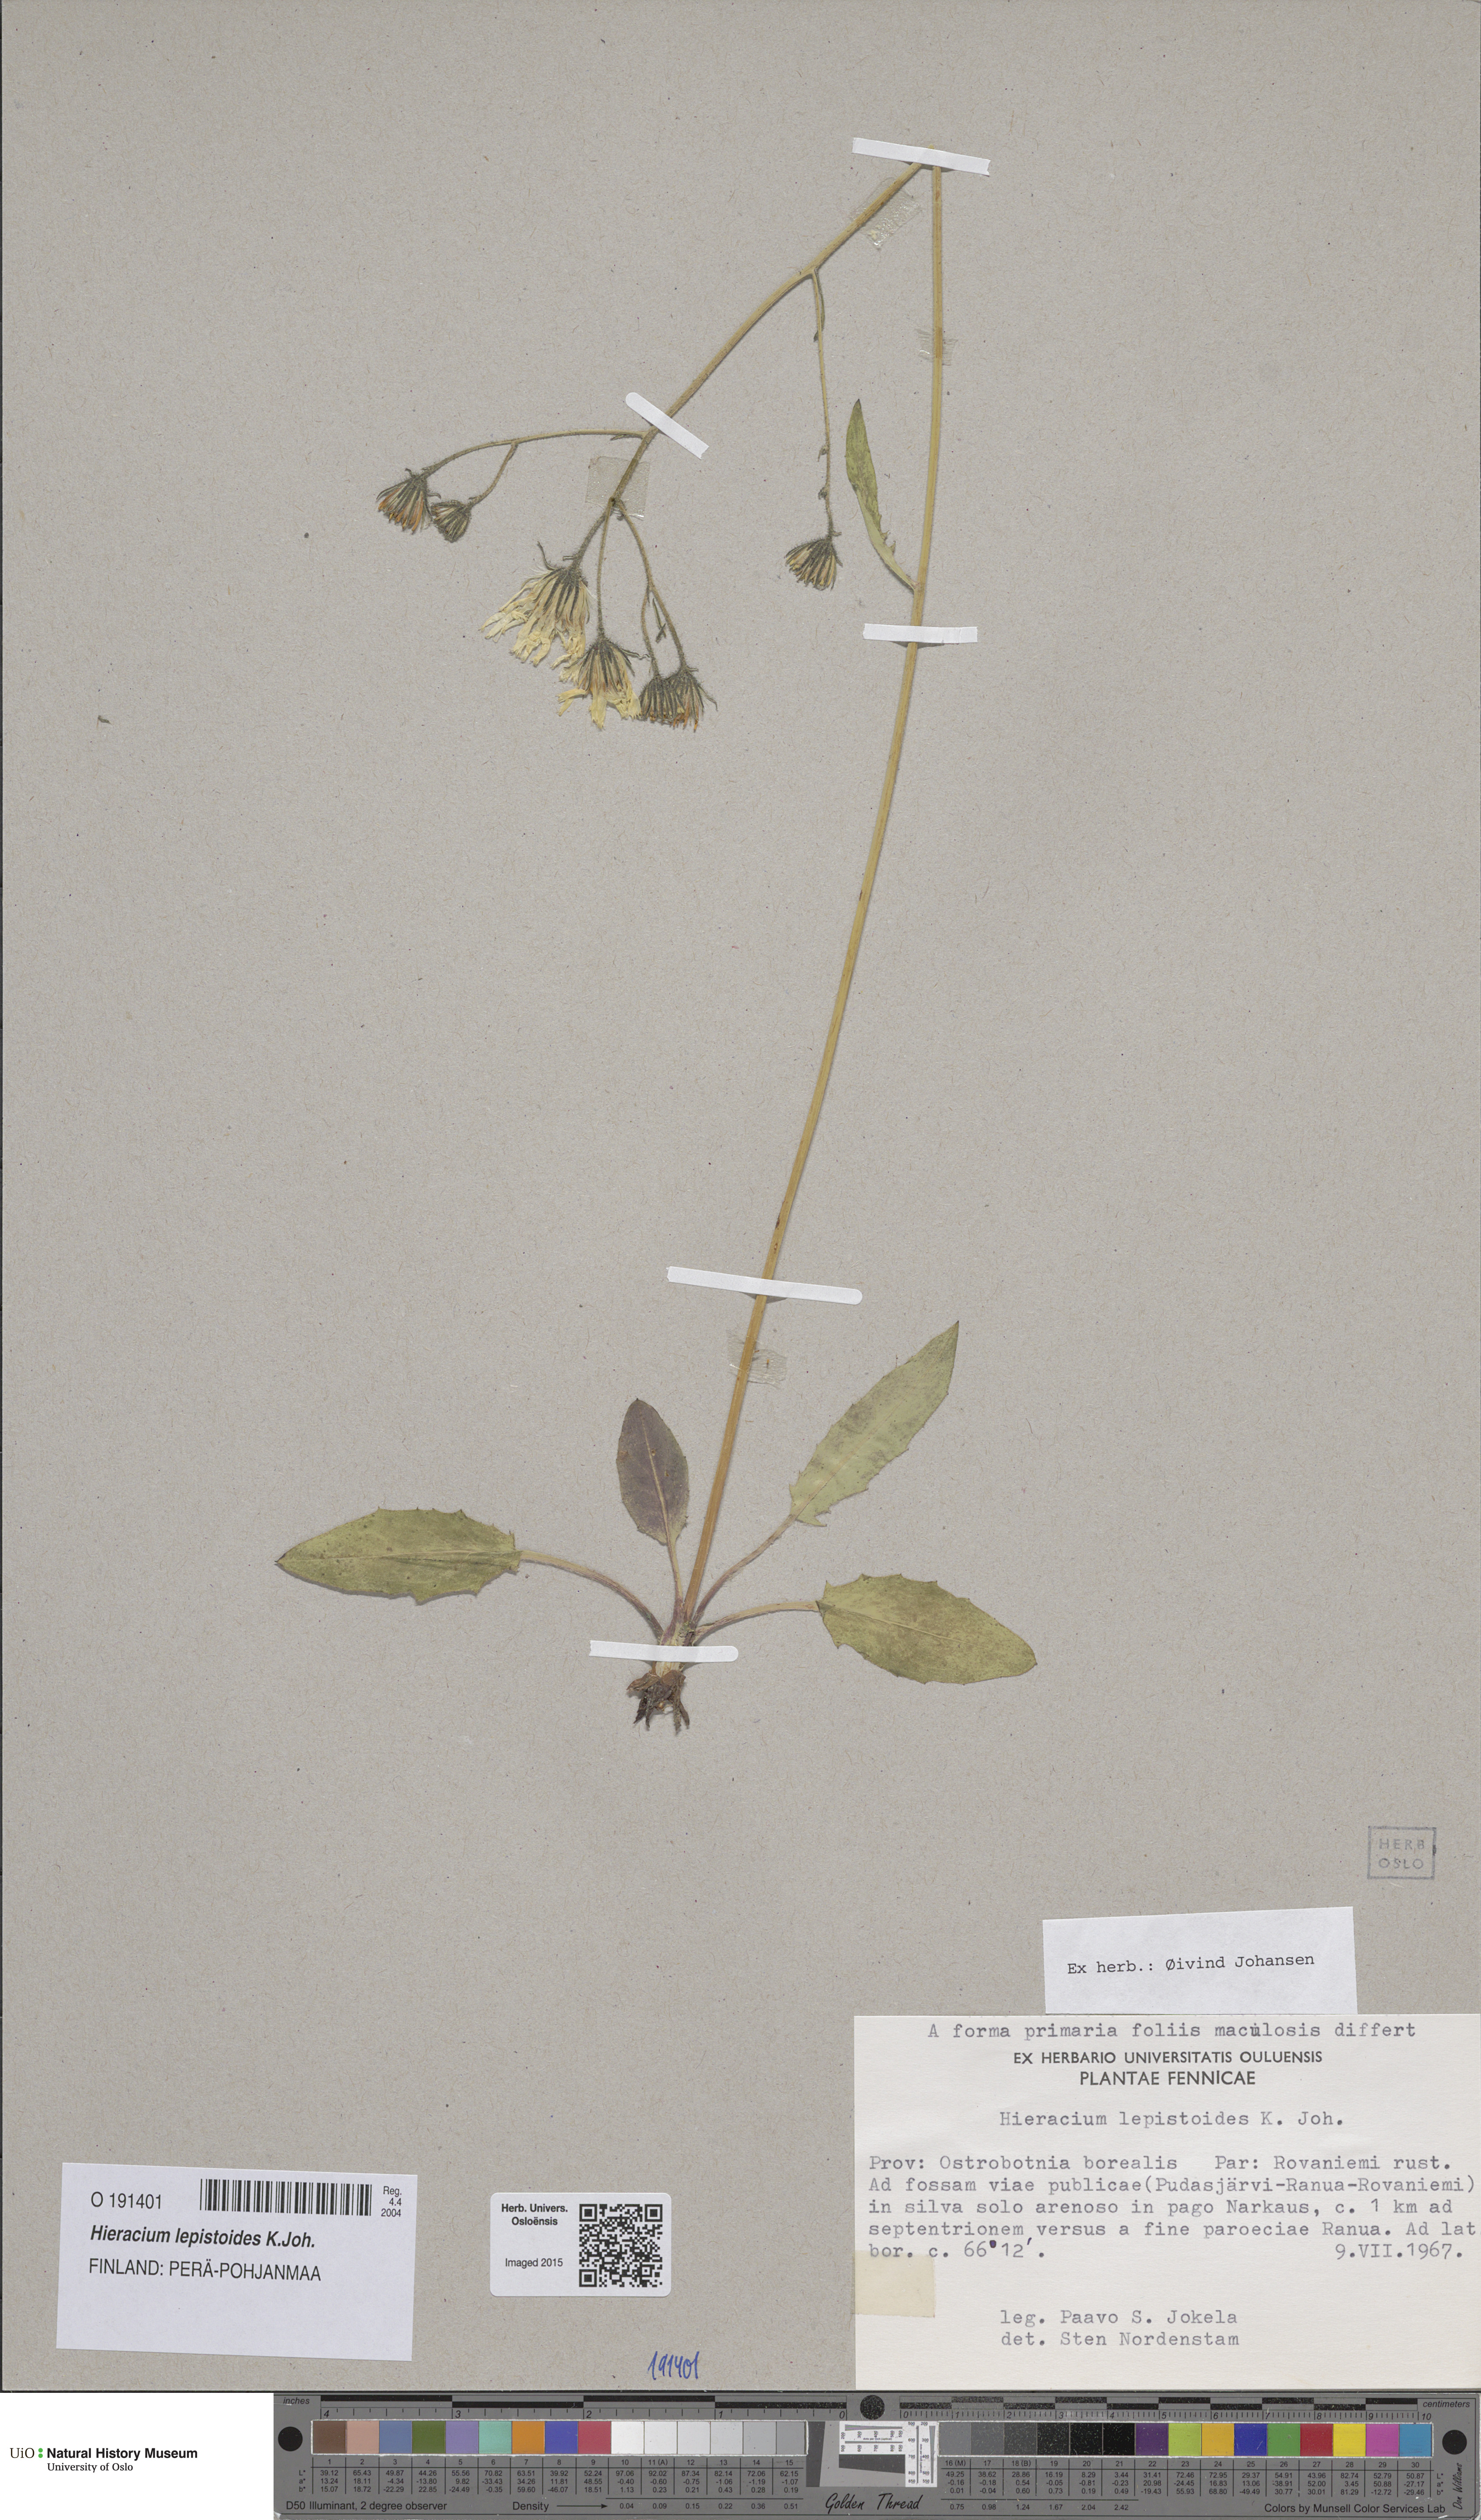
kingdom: Plantae
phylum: Tracheophyta
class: Magnoliopsida
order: Asterales
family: Asteraceae
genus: Hieracium
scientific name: Hieracium lepistoides
